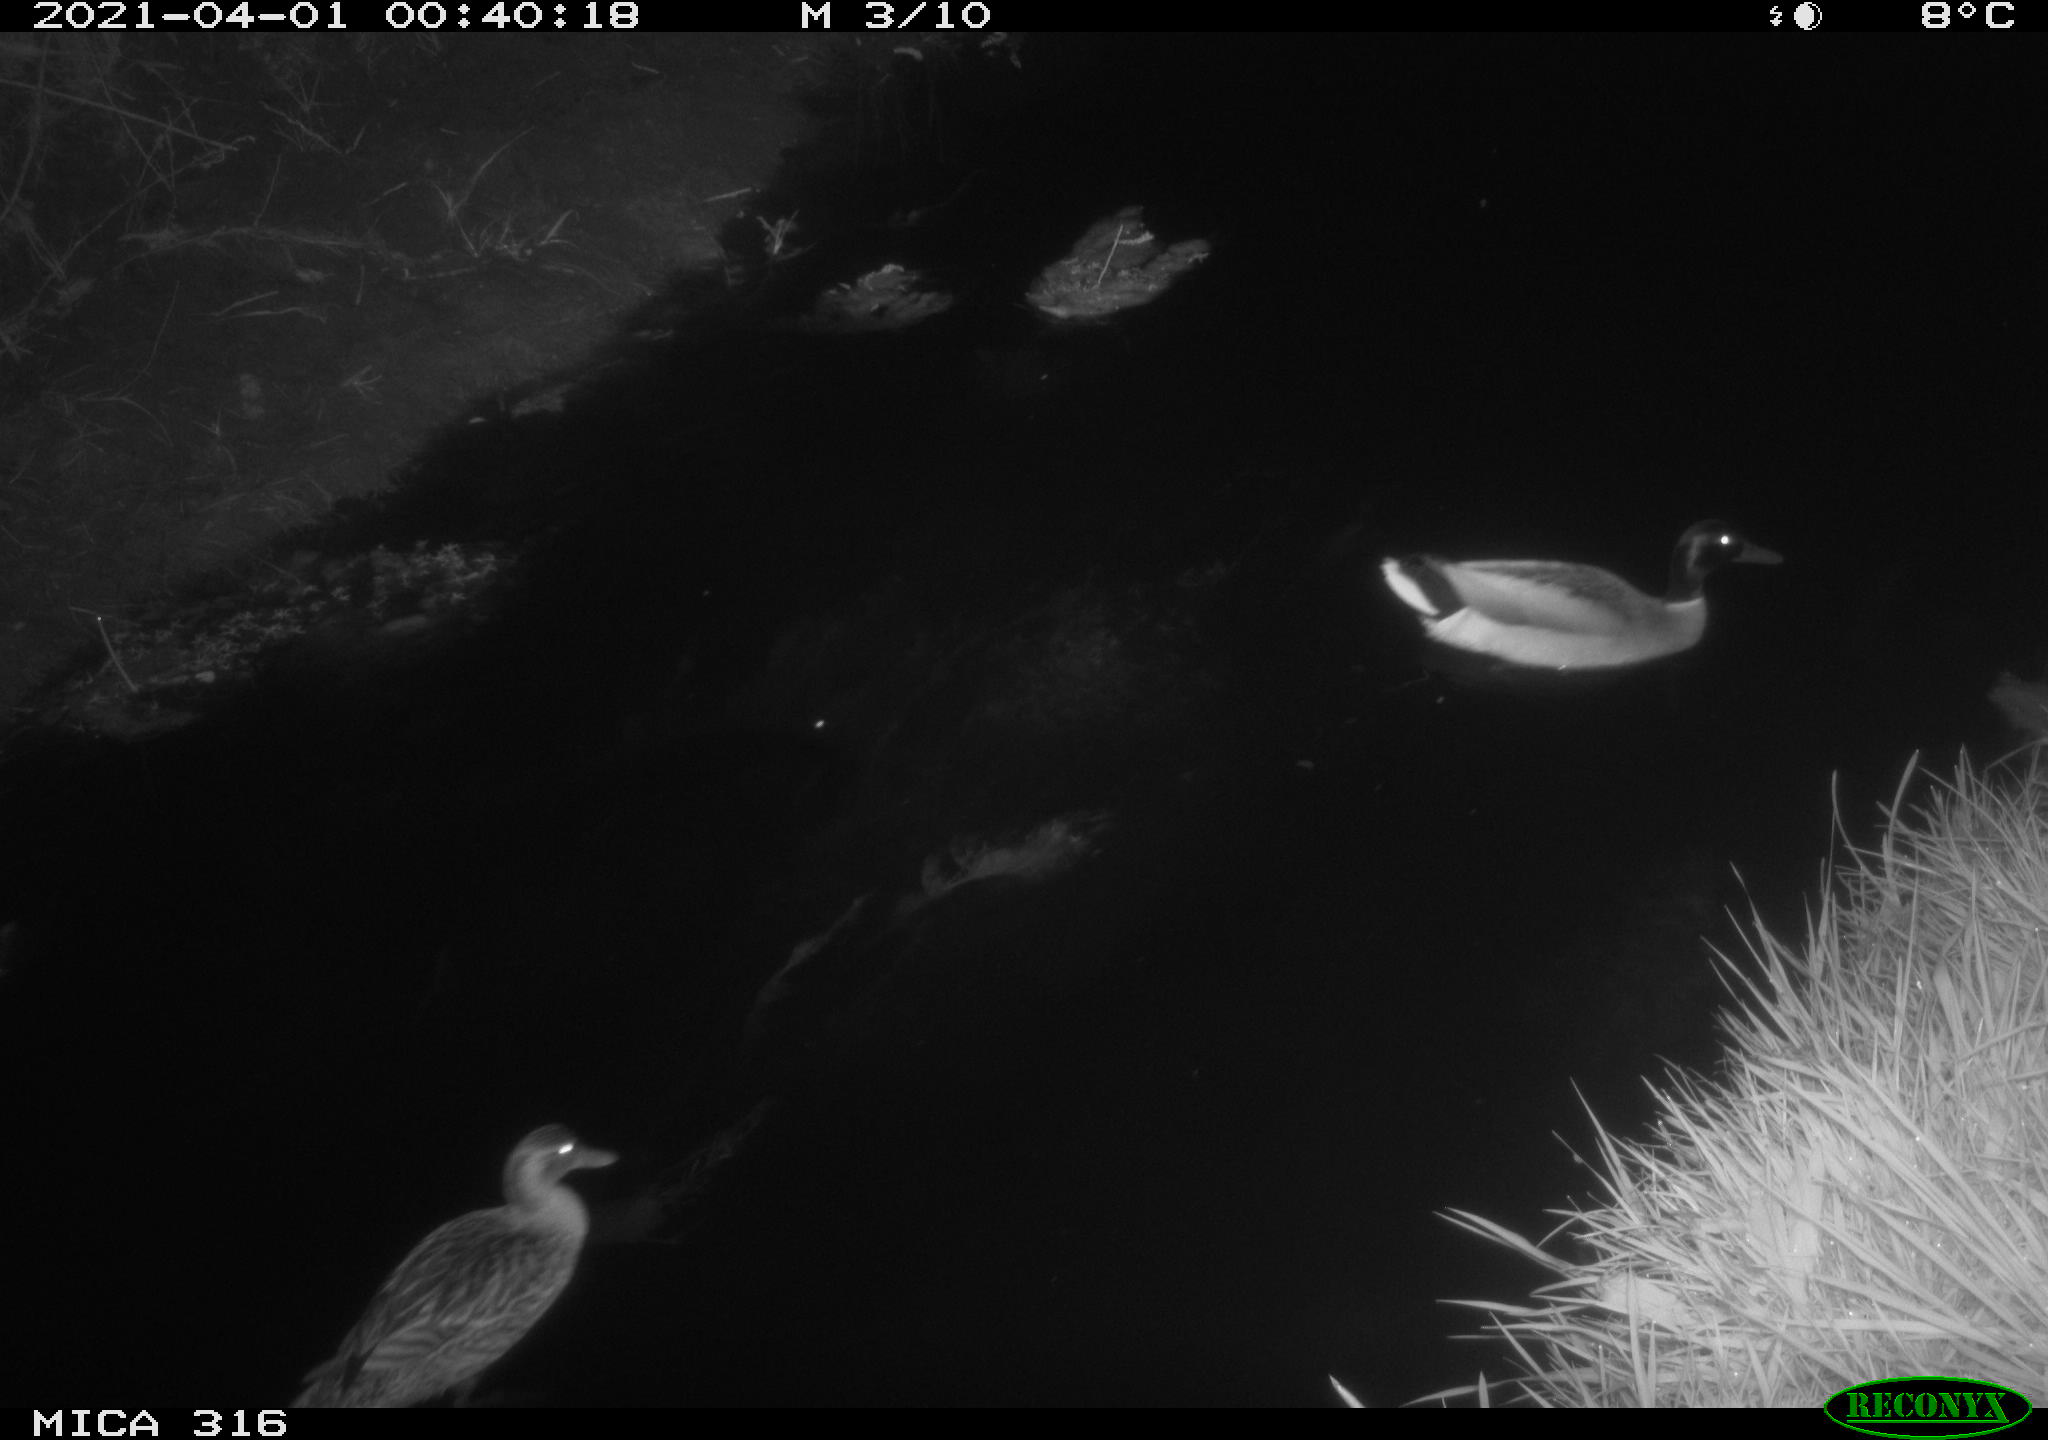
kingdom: Animalia
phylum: Chordata
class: Aves
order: Anseriformes
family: Anatidae
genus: Anas
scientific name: Anas platyrhynchos
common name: Mallard
